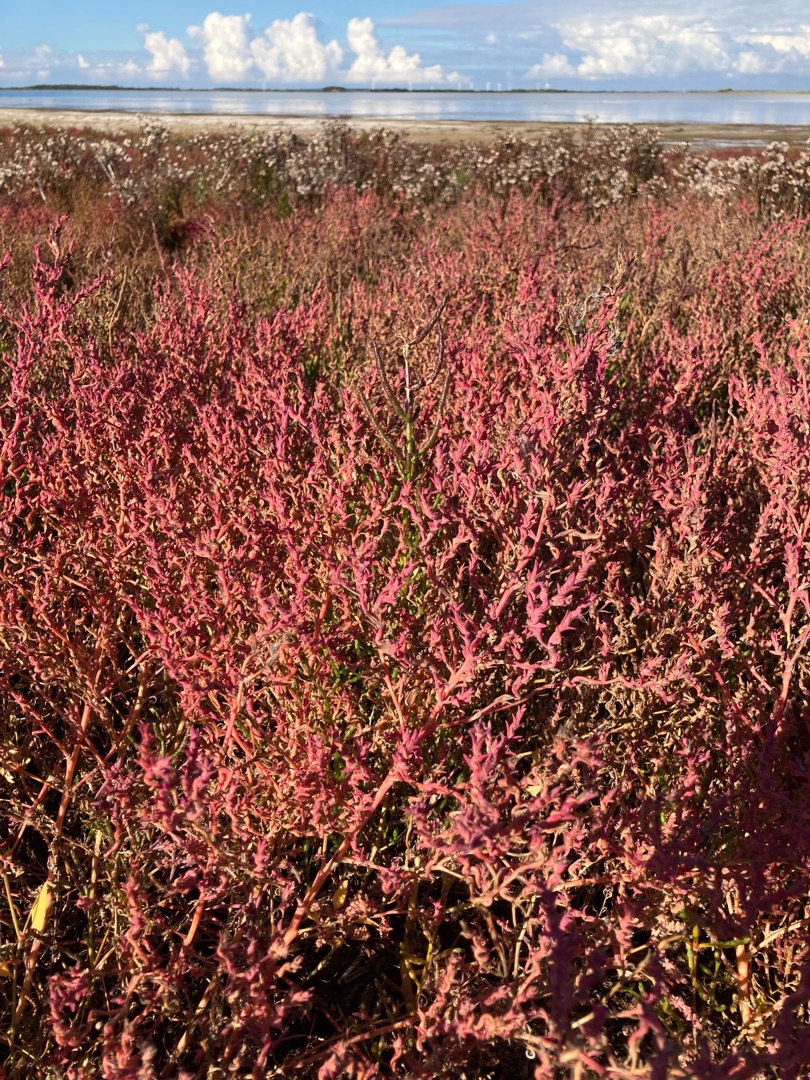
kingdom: Plantae
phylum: Tracheophyta
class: Magnoliopsida
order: Caryophyllales
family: Amaranthaceae
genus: Spirobassia
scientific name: Spirobassia hirsuta
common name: Tangurt
